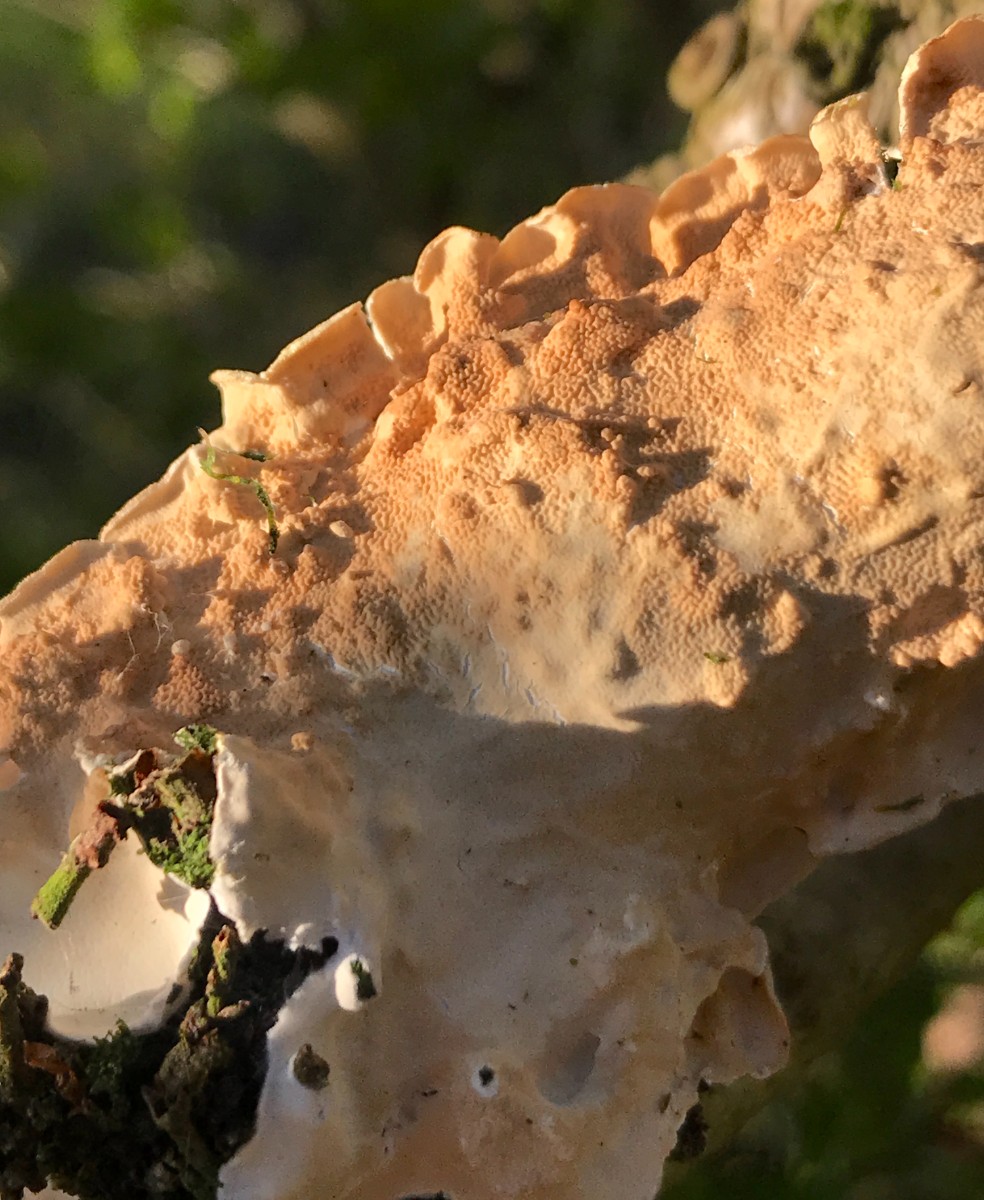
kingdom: Fungi
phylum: Basidiomycota
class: Agaricomycetes
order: Polyporales
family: Steccherinaceae
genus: Steccherinum
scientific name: Steccherinum ochraceum
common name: almindelig skønpig
